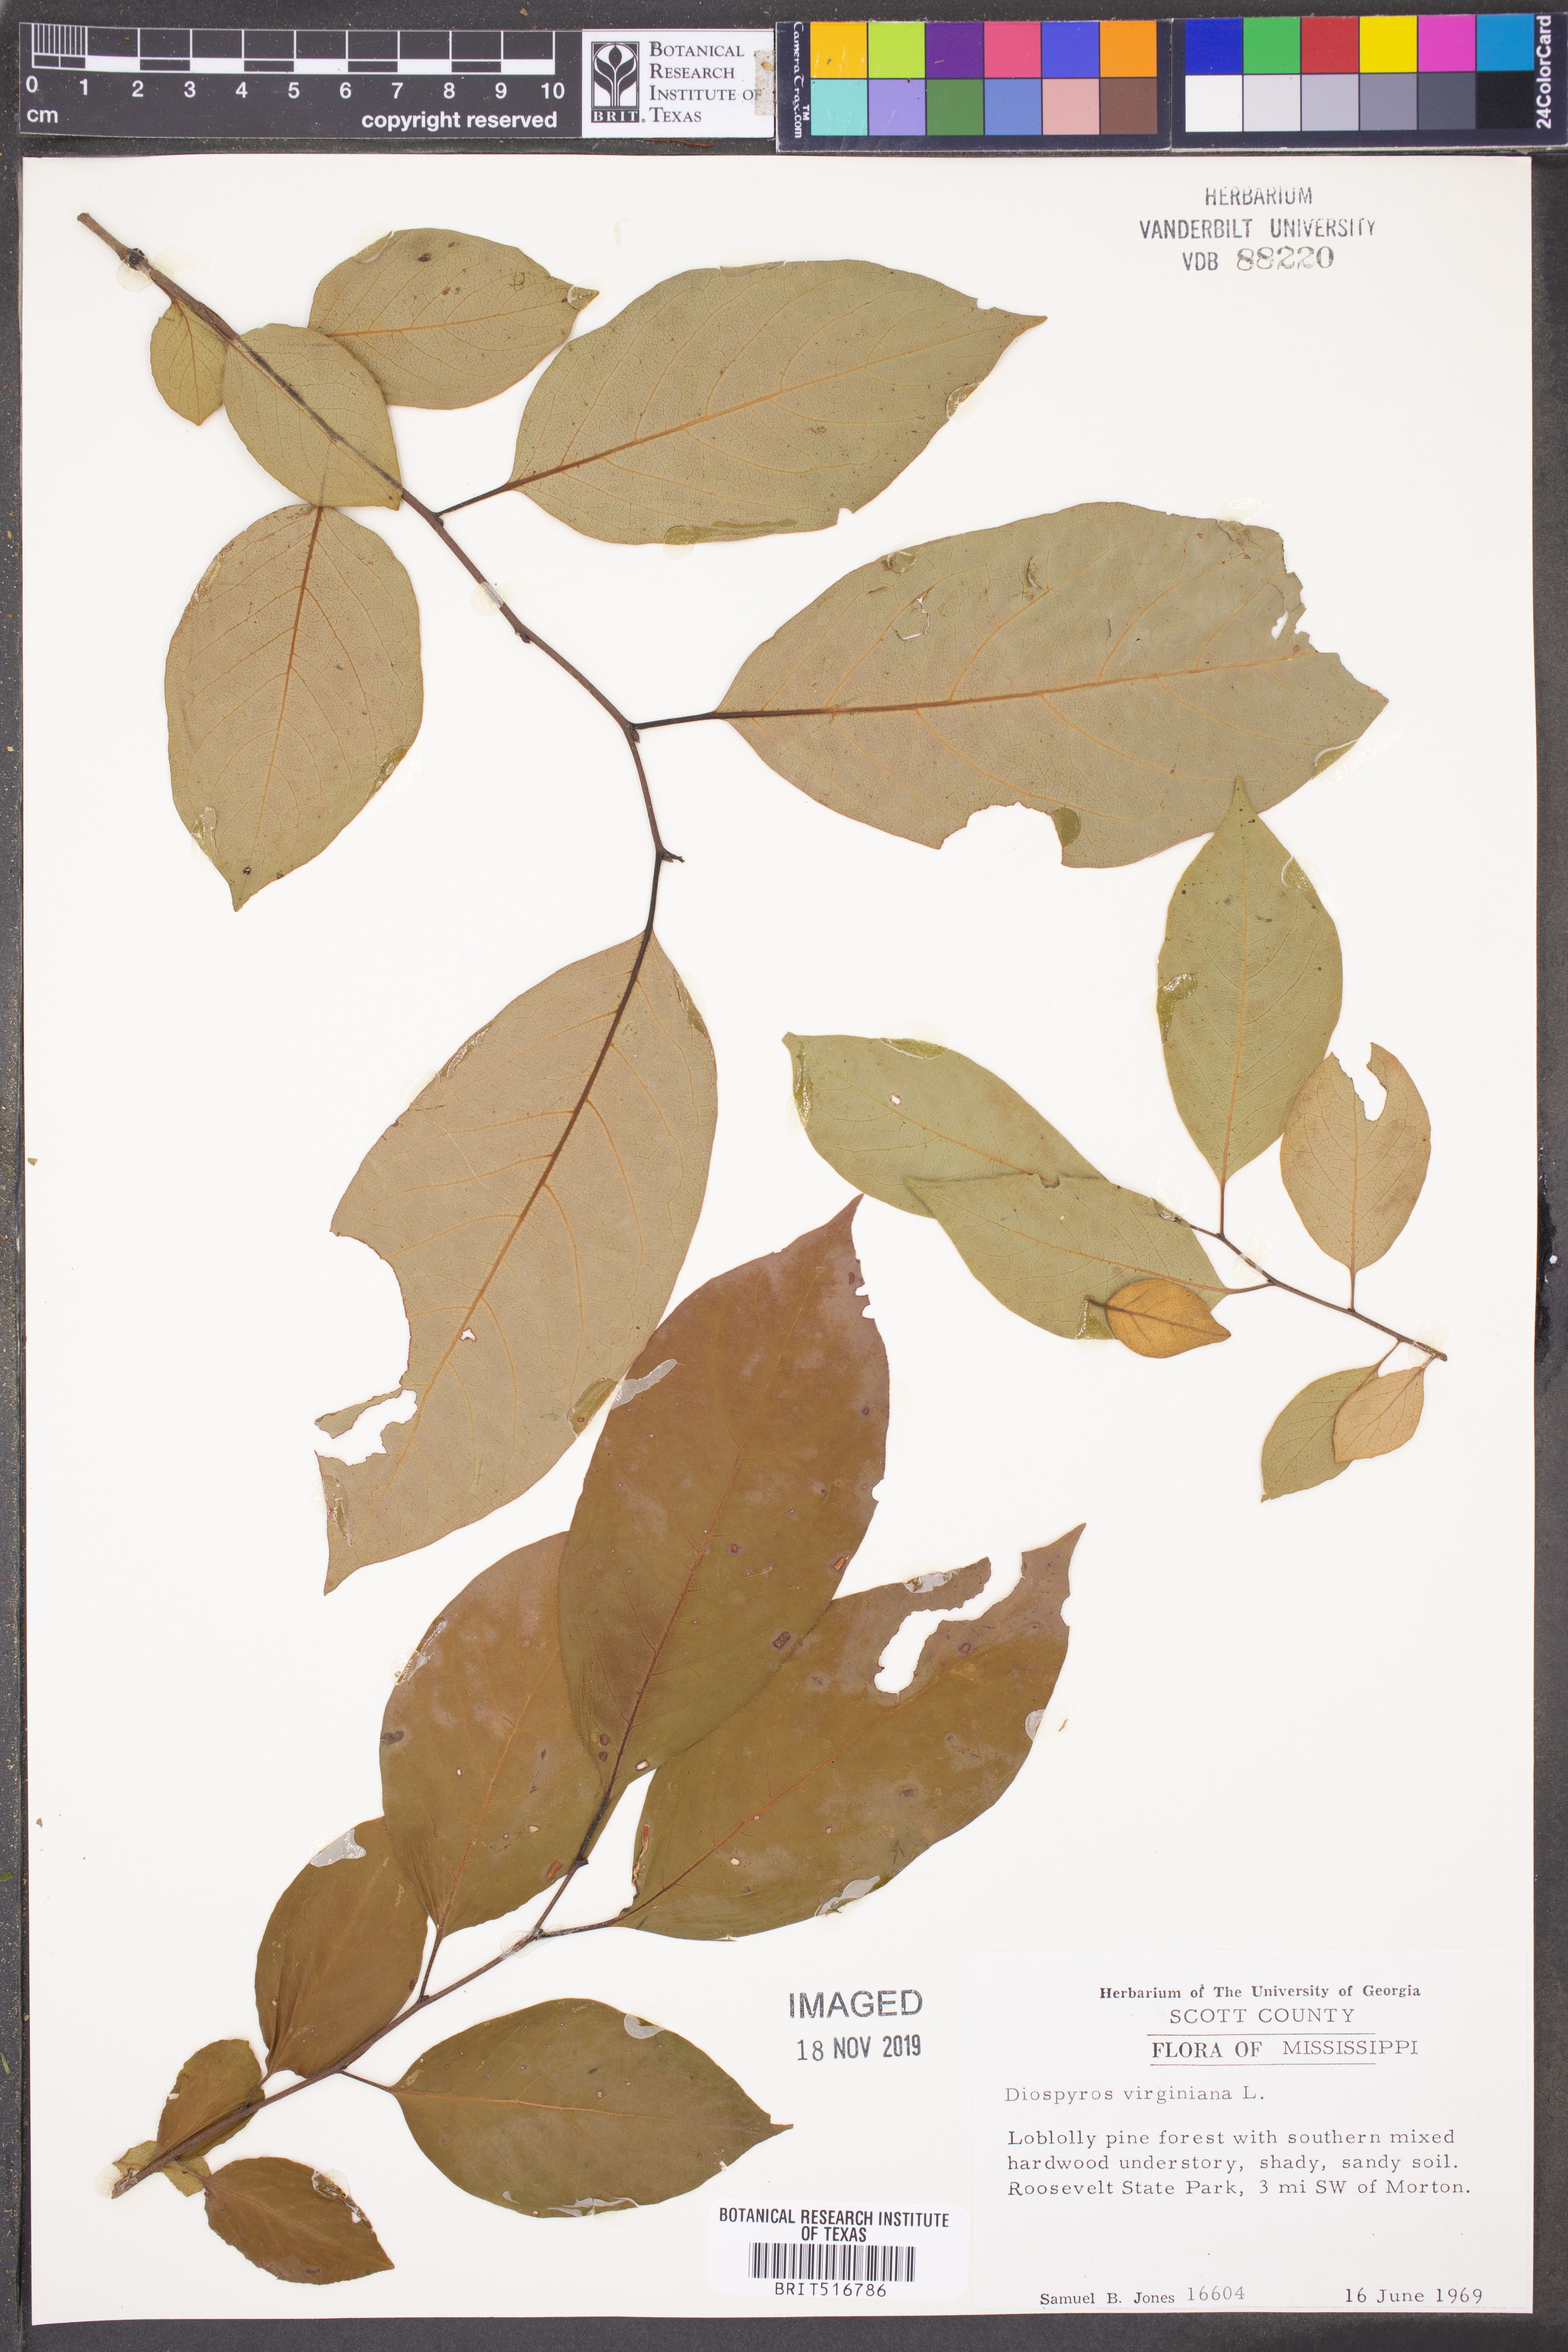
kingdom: Plantae
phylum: Tracheophyta
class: Magnoliopsida
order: Ericales
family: Ebenaceae
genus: Diospyros
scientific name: Diospyros virginiana
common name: Persimmon
